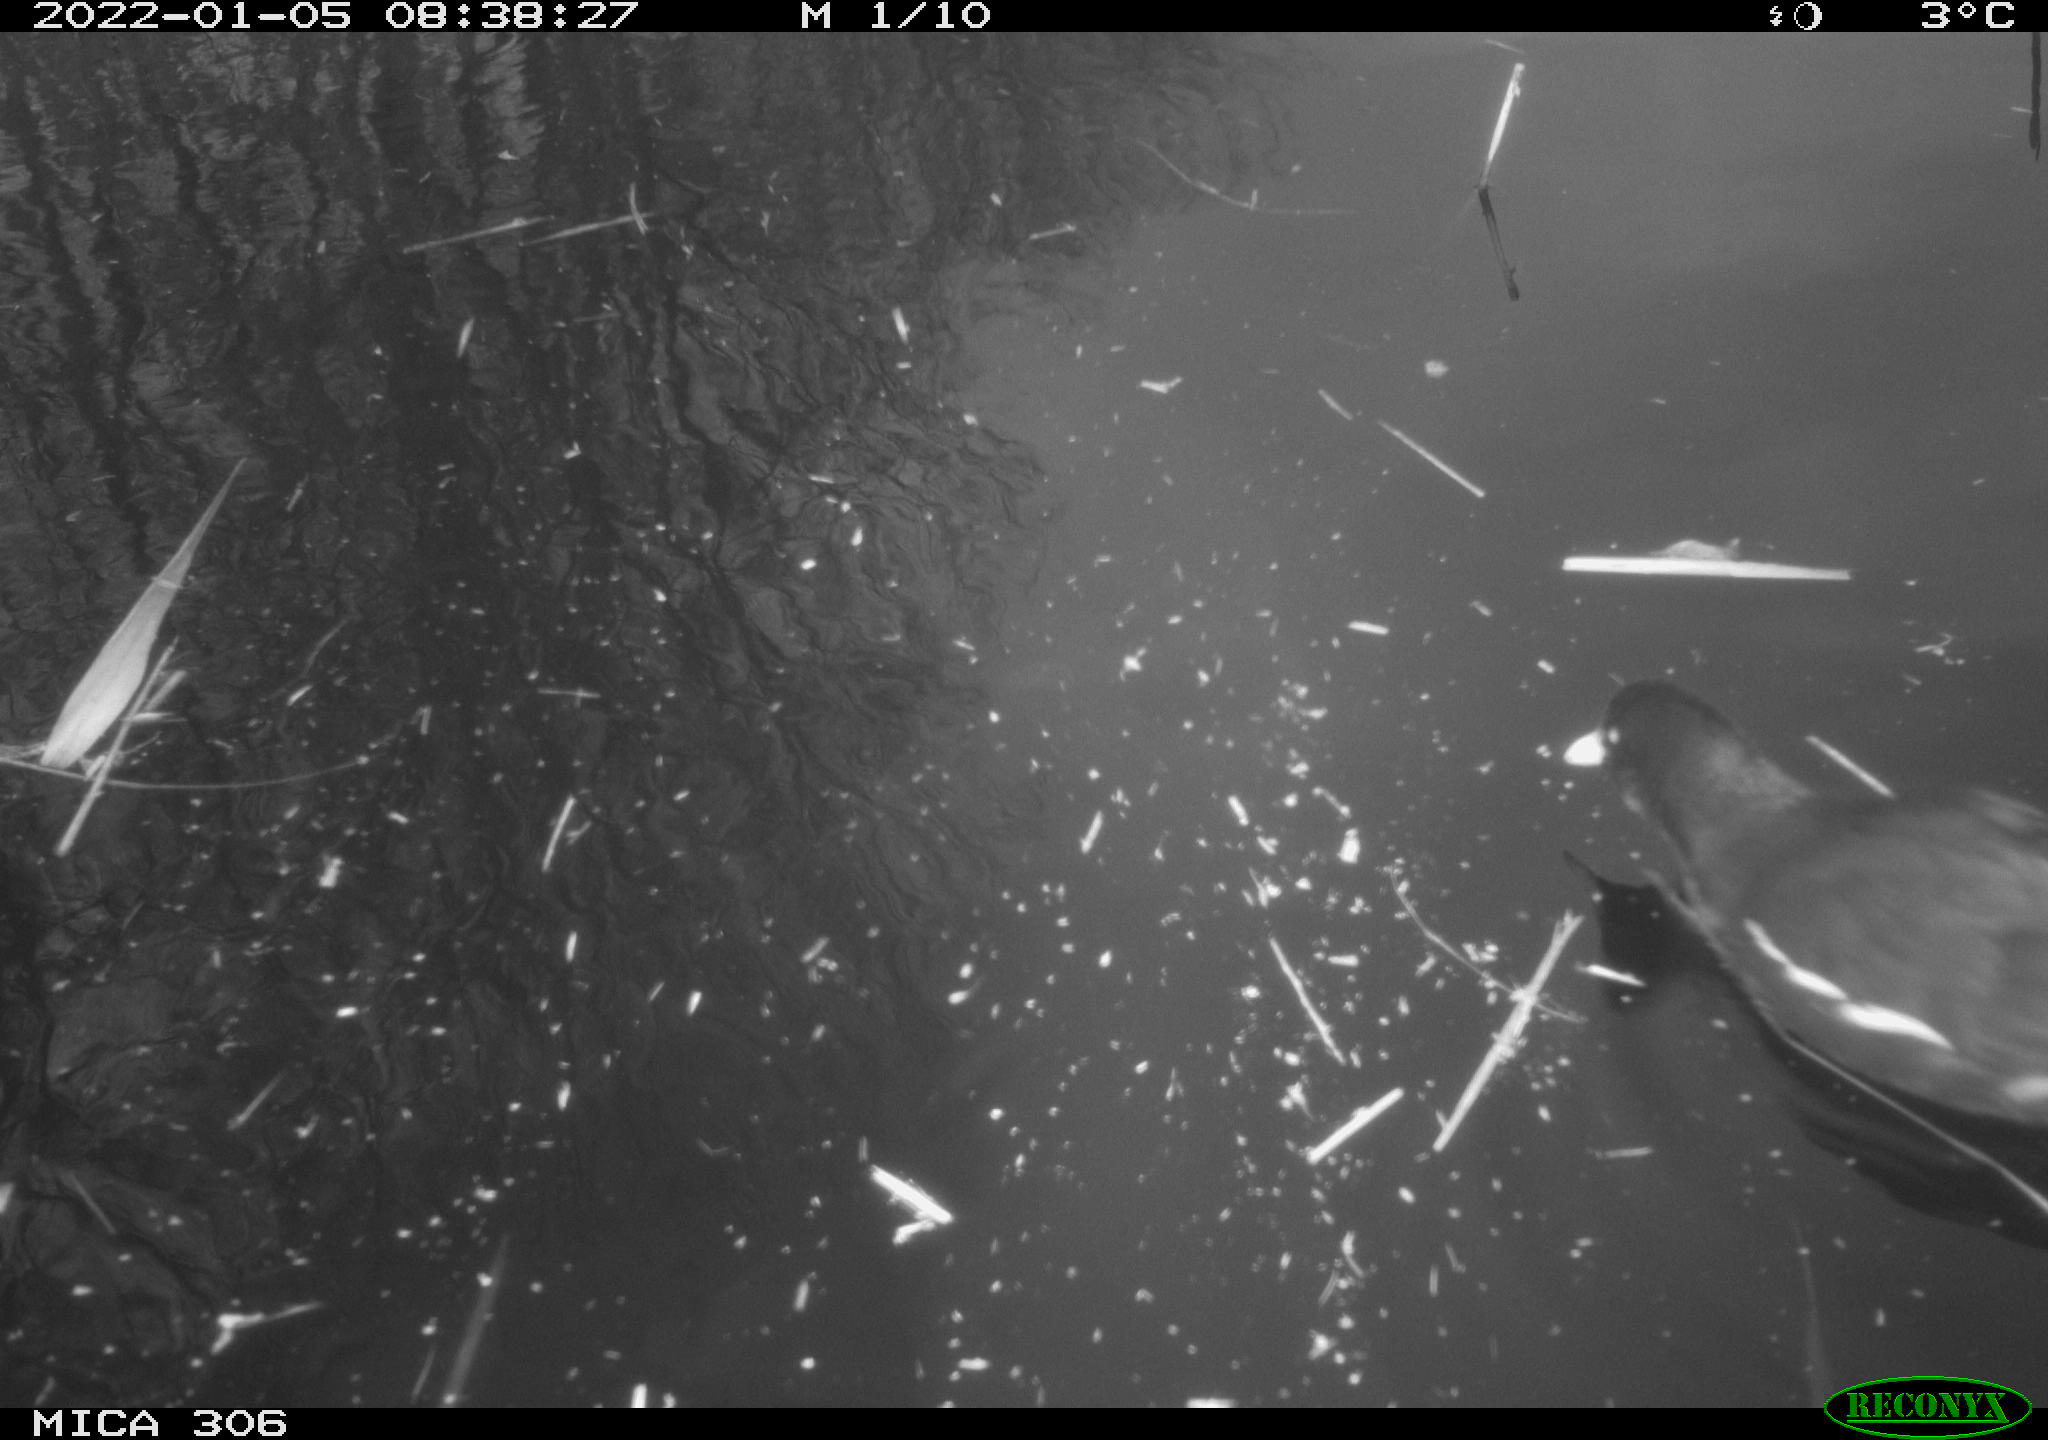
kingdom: Animalia
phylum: Chordata
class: Aves
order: Gruiformes
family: Rallidae
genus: Gallinula
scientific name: Gallinula chloropus
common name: Common moorhen
